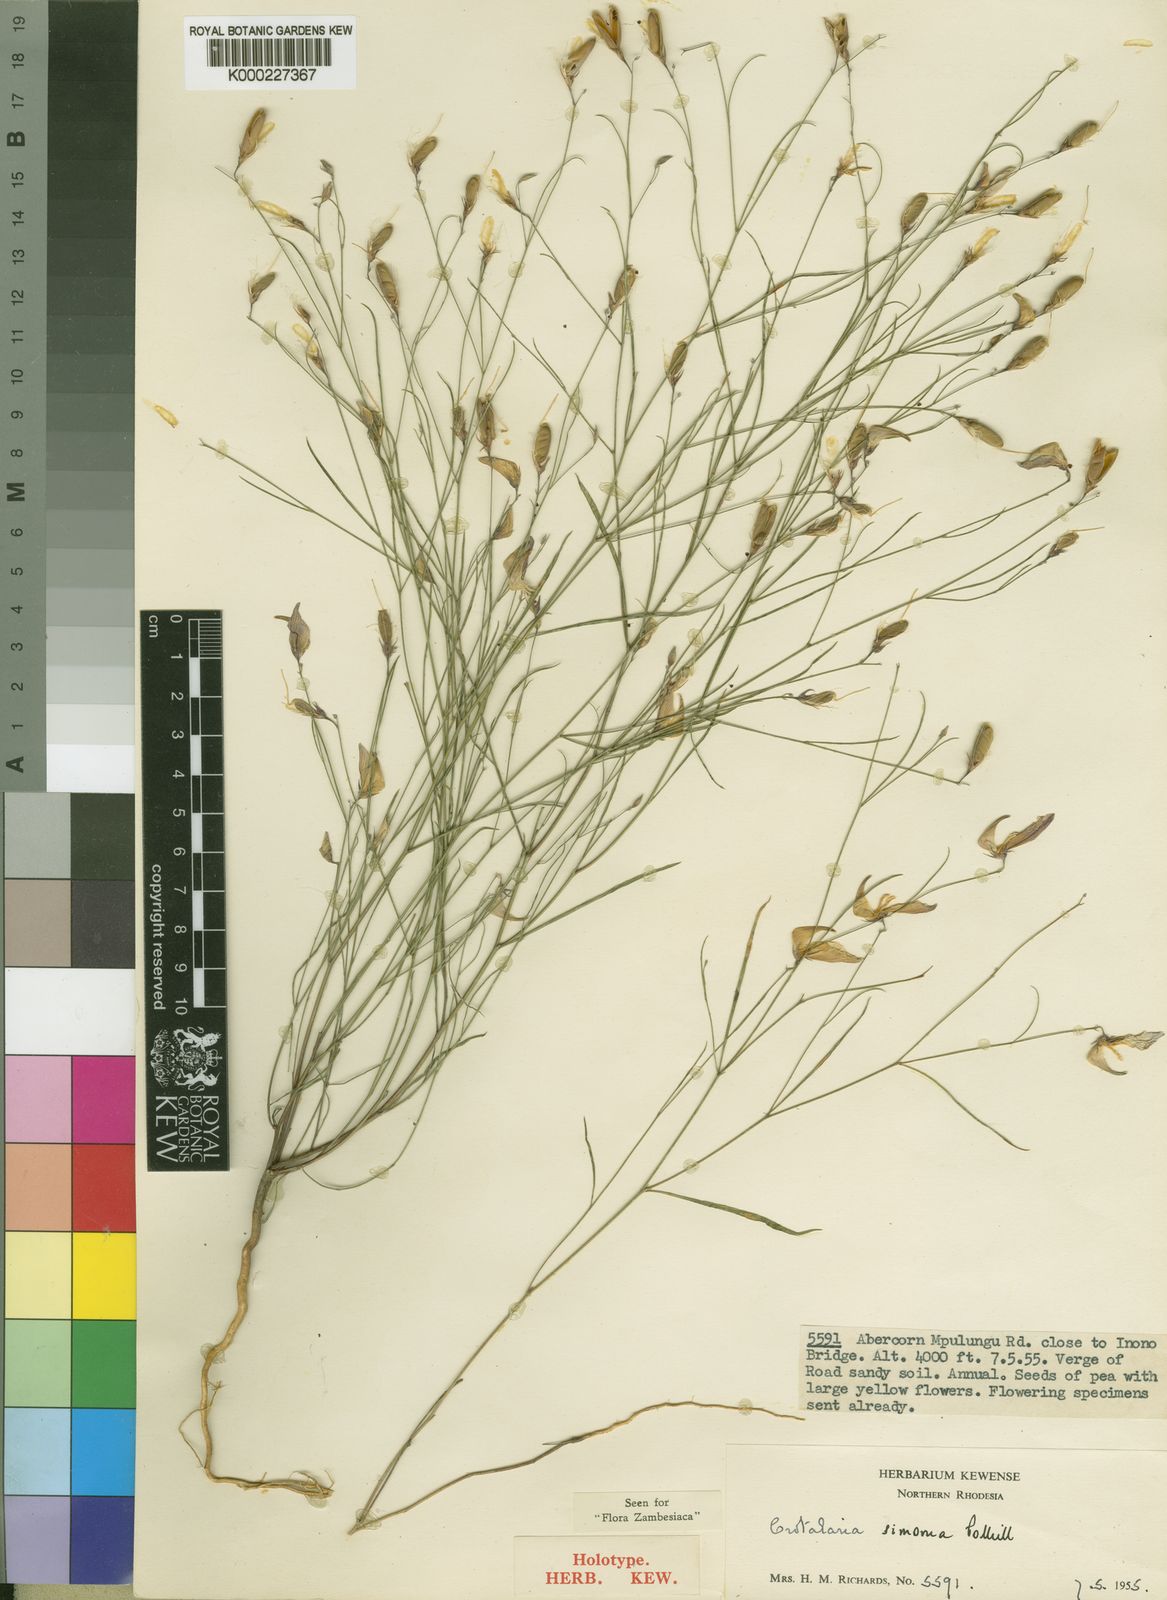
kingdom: Plantae
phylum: Tracheophyta
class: Magnoliopsida
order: Fabales
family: Fabaceae
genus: Crotalaria
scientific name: Crotalaria simoma
